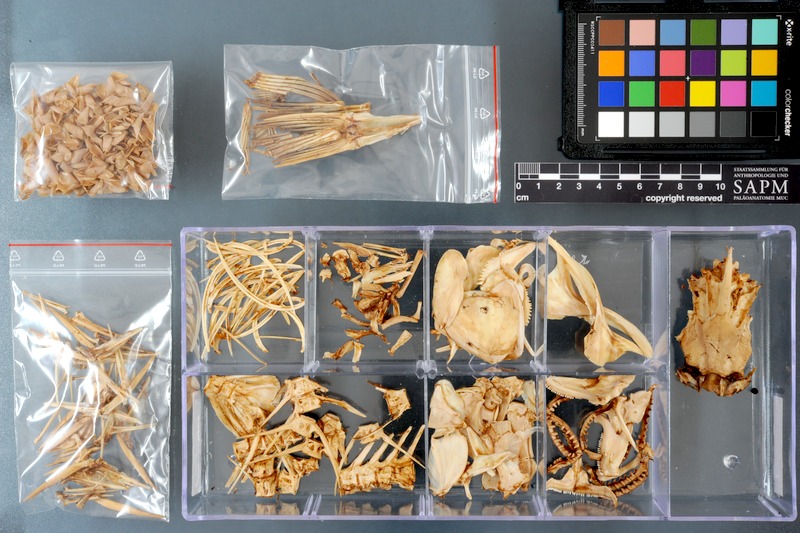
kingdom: Animalia
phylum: Chordata
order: Perciformes
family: Lobotidae
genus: Lobotes
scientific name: Lobotes surinamensis
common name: Atlantic tripletail
